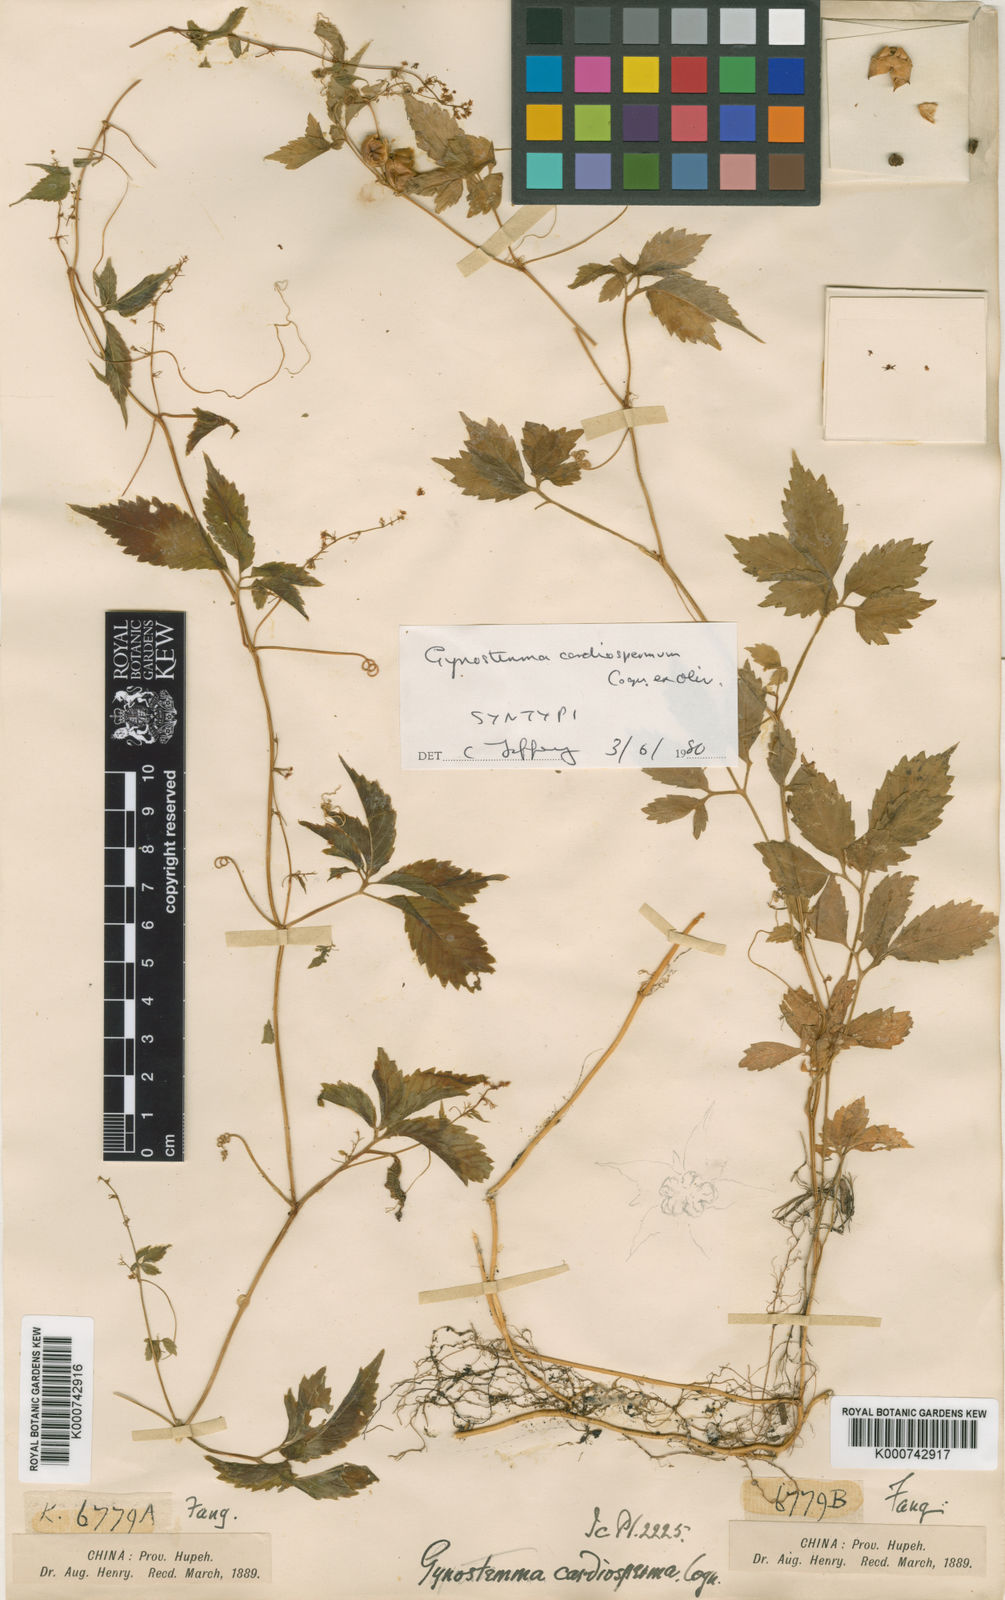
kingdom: Plantae
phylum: Tracheophyta
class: Magnoliopsida
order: Cucurbitales
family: Cucurbitaceae
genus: Gynostemma
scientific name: Gynostemma cardiospermum
